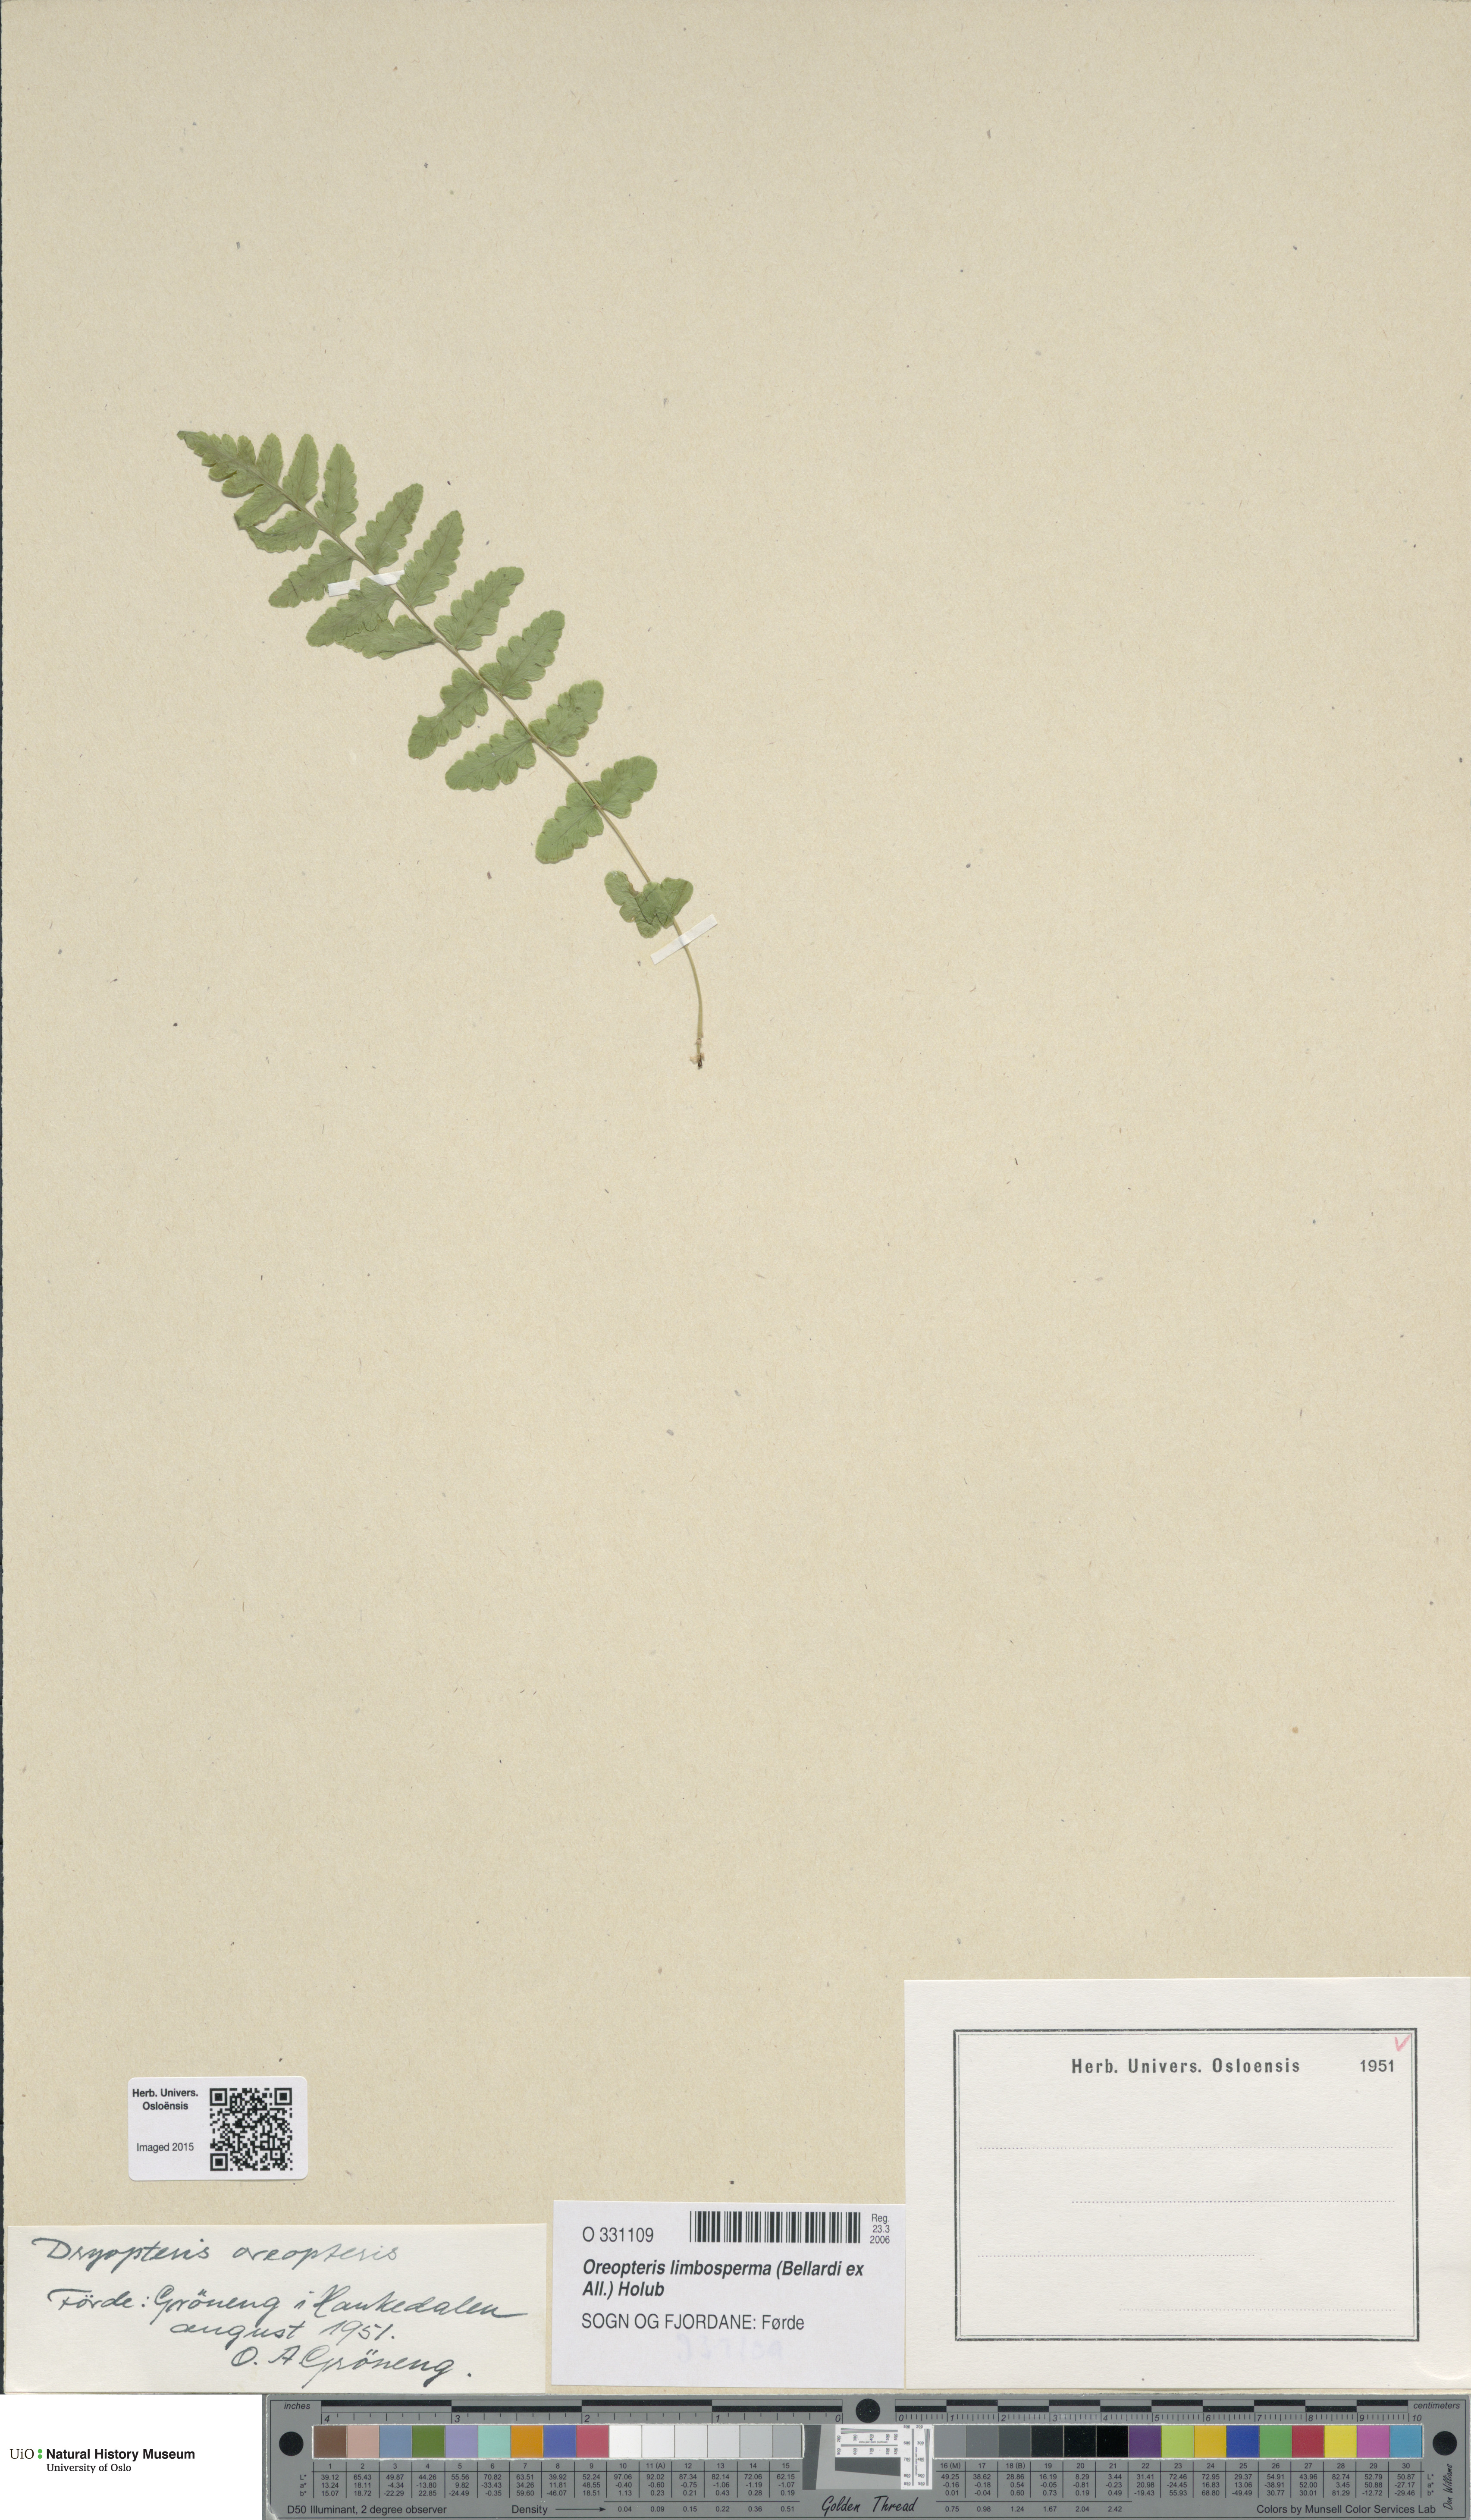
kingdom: Plantae
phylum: Tracheophyta
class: Polypodiopsida
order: Polypodiales
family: Thelypteridaceae
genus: Oreopteris
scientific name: Oreopteris limbosperma
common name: Lemon-scented fern
